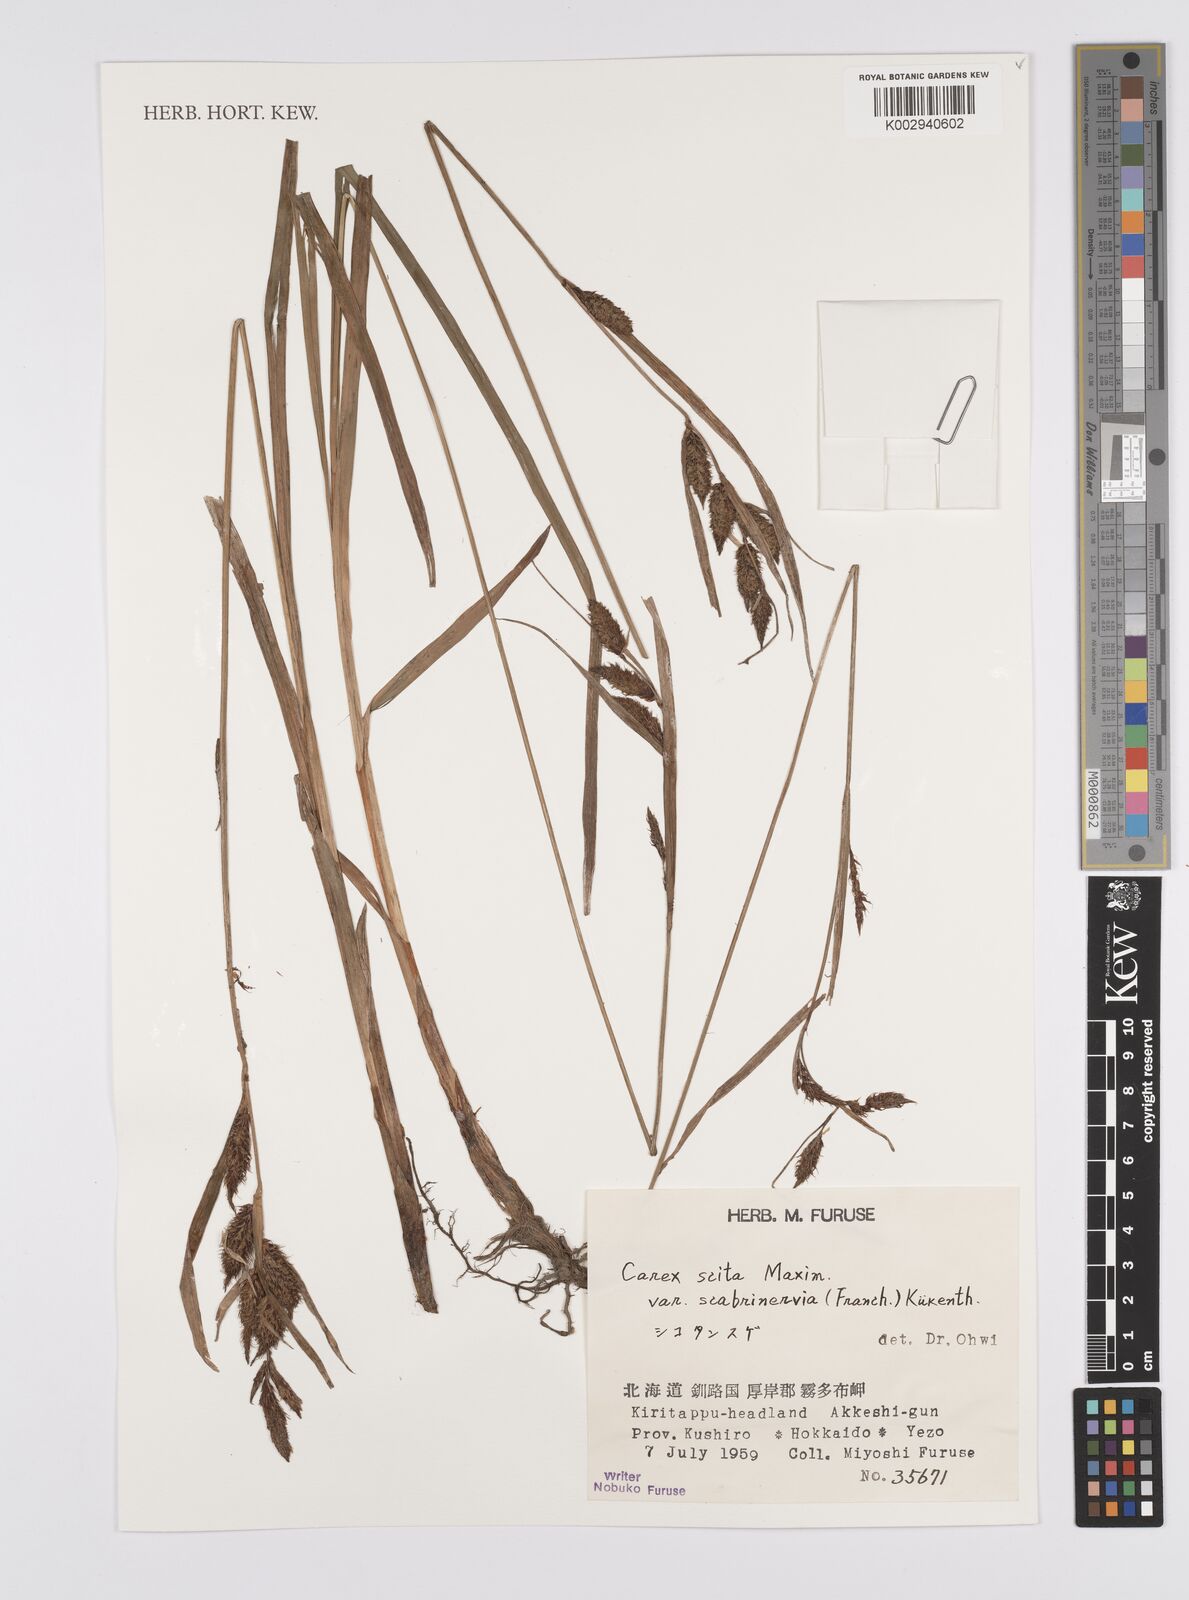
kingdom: Plantae
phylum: Tracheophyta
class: Liliopsida
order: Poales
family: Cyperaceae
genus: Carex
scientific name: Carex scita
